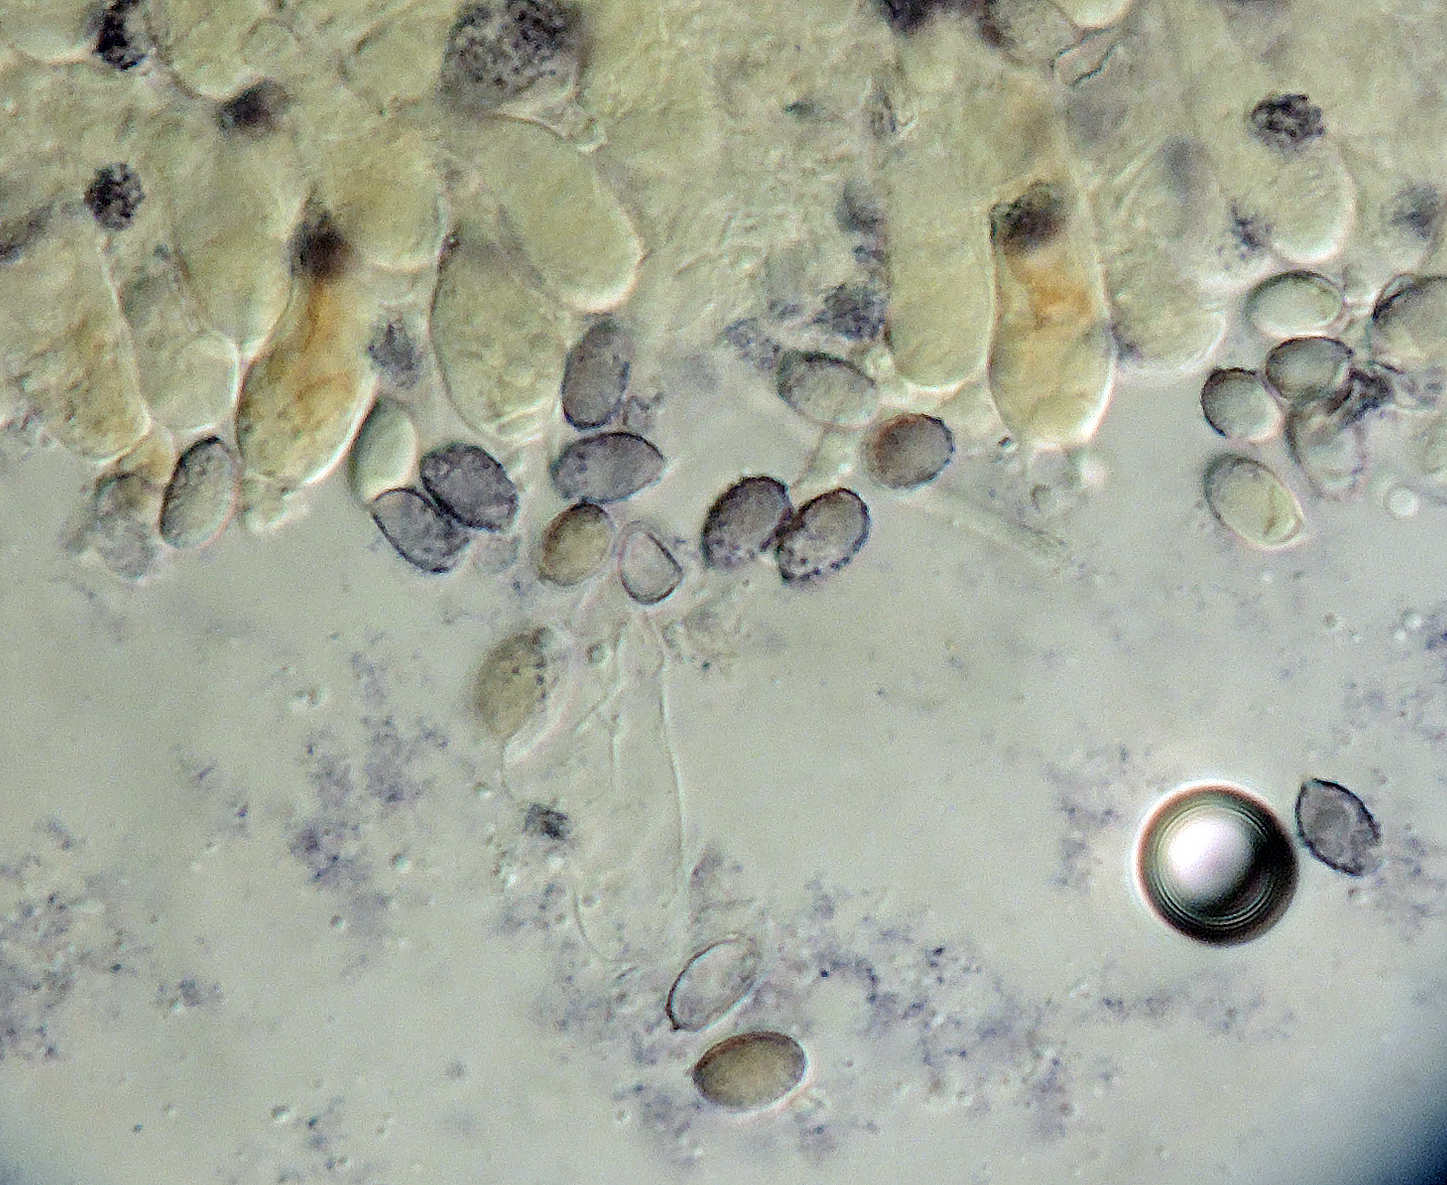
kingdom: Fungi
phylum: Basidiomycota
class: Agaricomycetes
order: Agaricales
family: Tricholomataceae
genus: Melanoleuca
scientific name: Melanoleuca diverticulata
